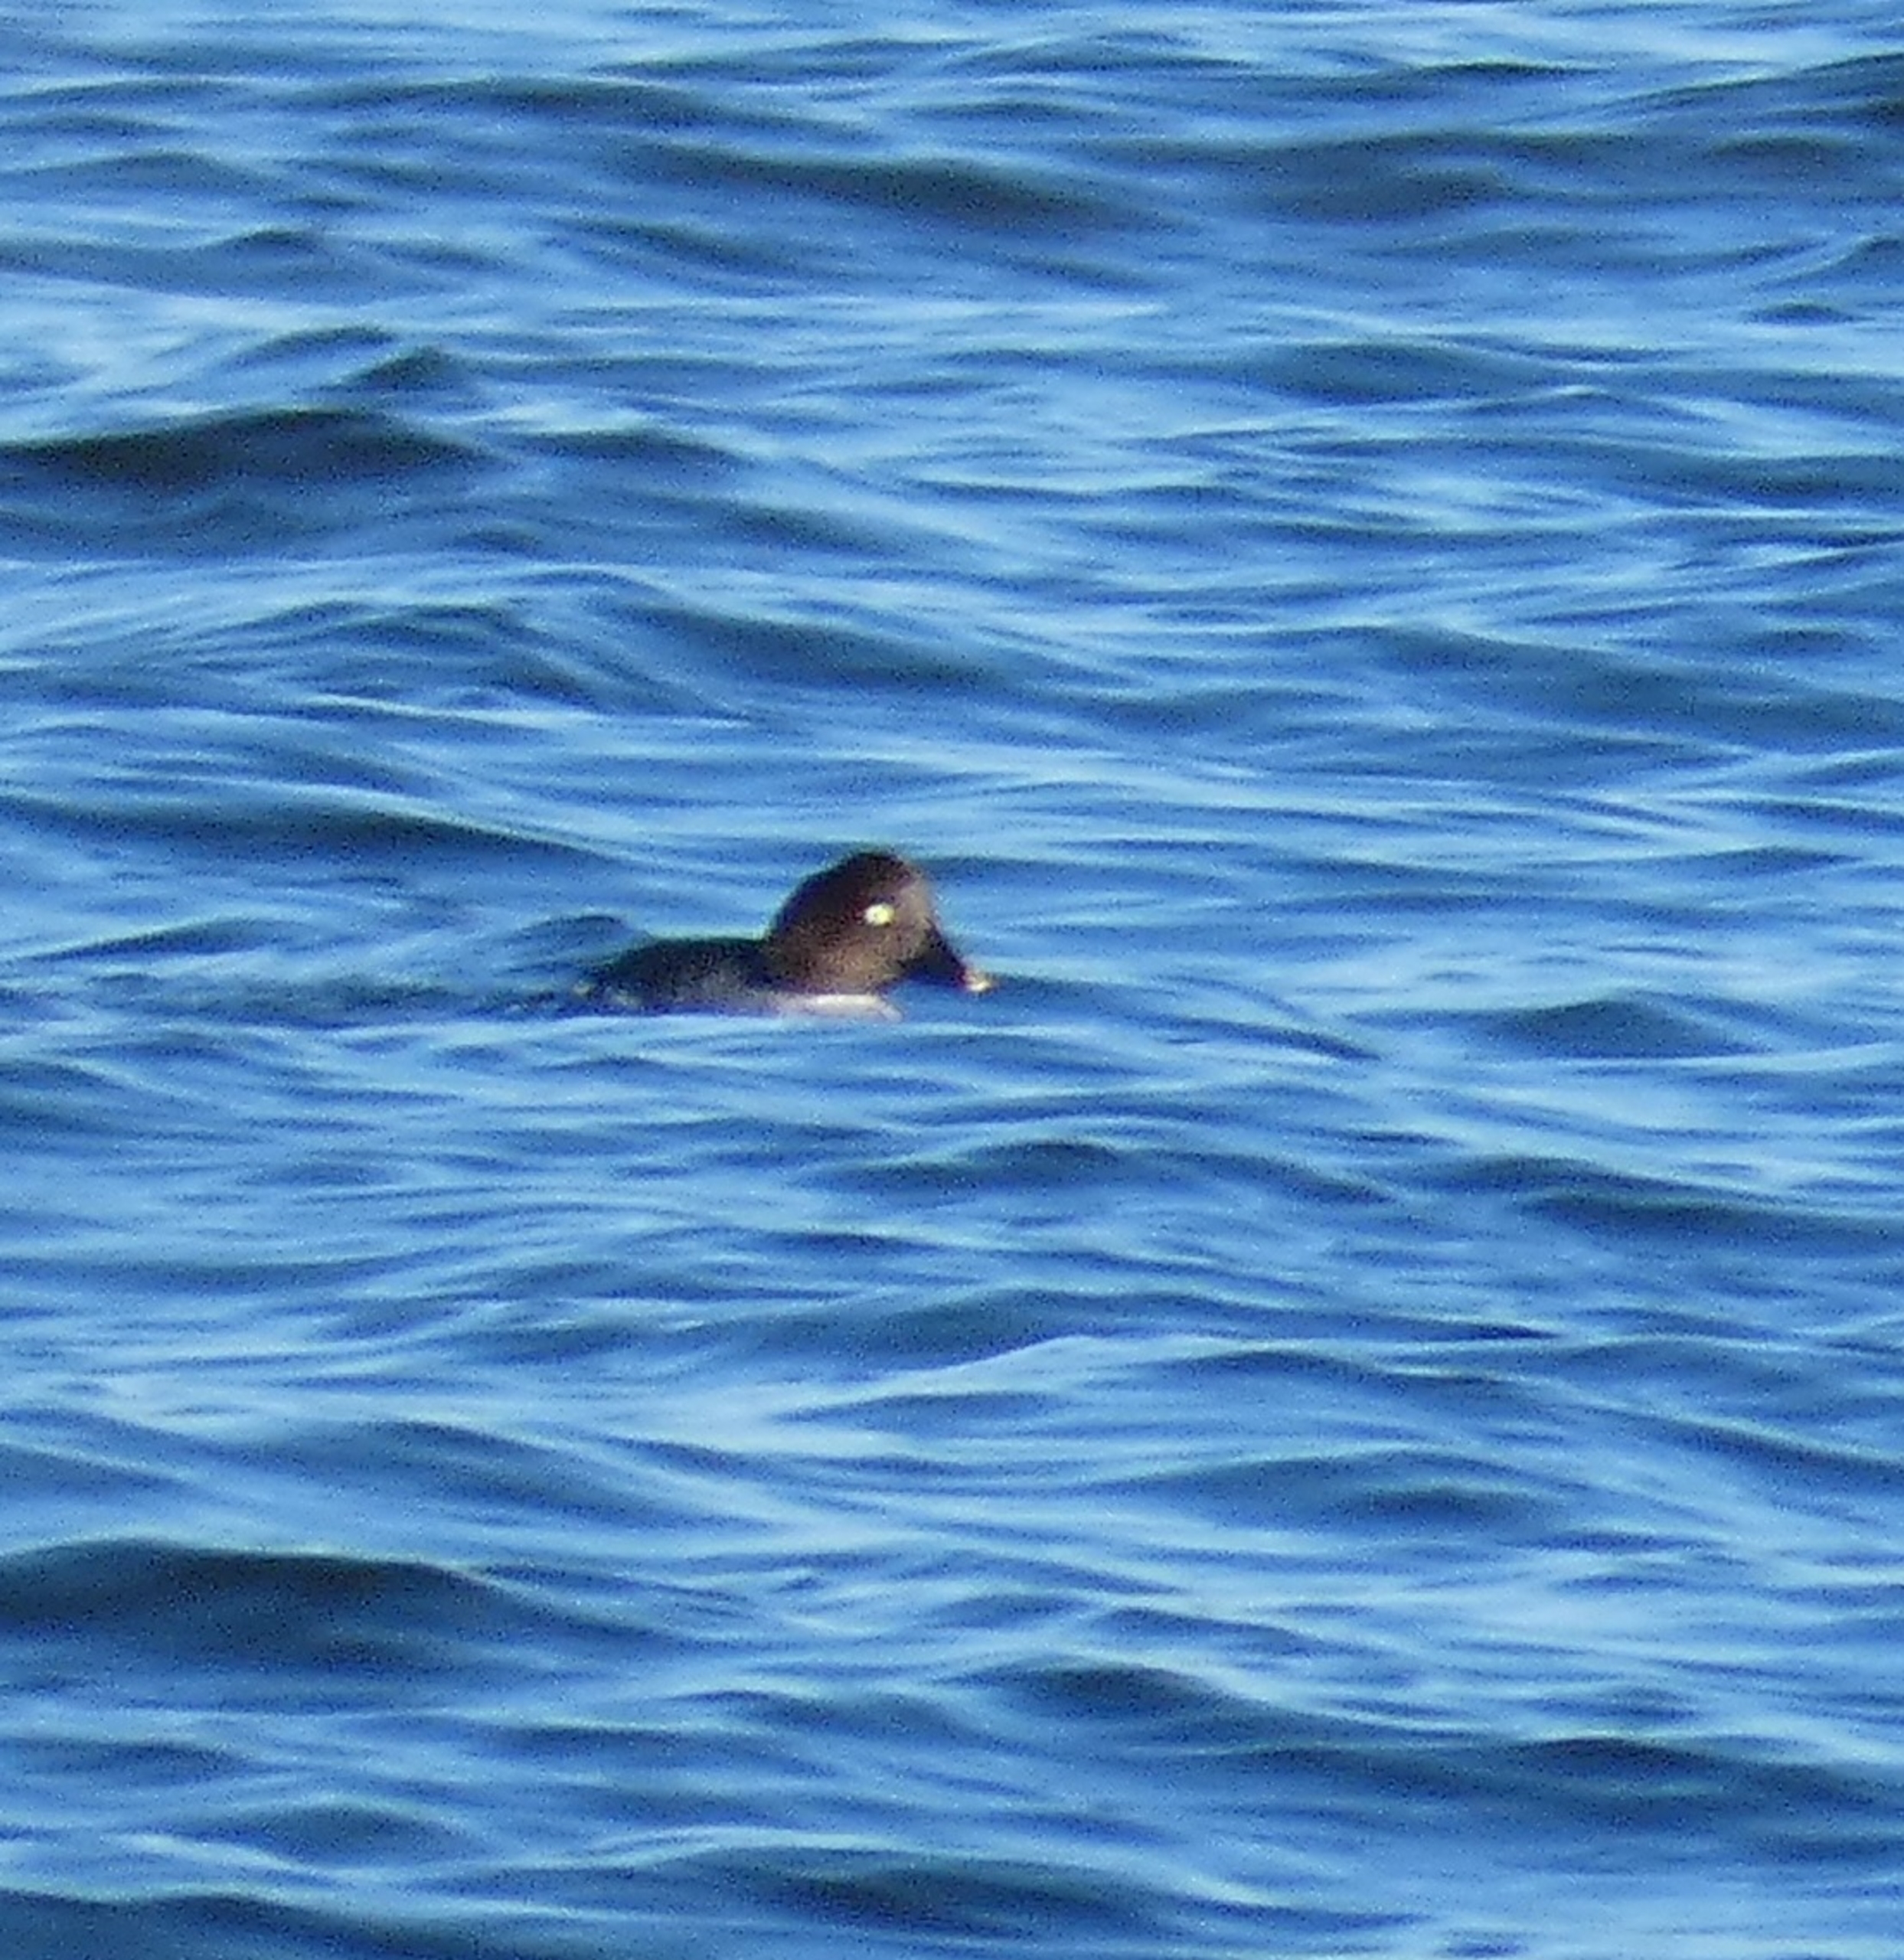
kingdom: Animalia
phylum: Chordata
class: Aves
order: Anseriformes
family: Anatidae
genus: Bucephala
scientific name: Bucephala clangula
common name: Hvinand
